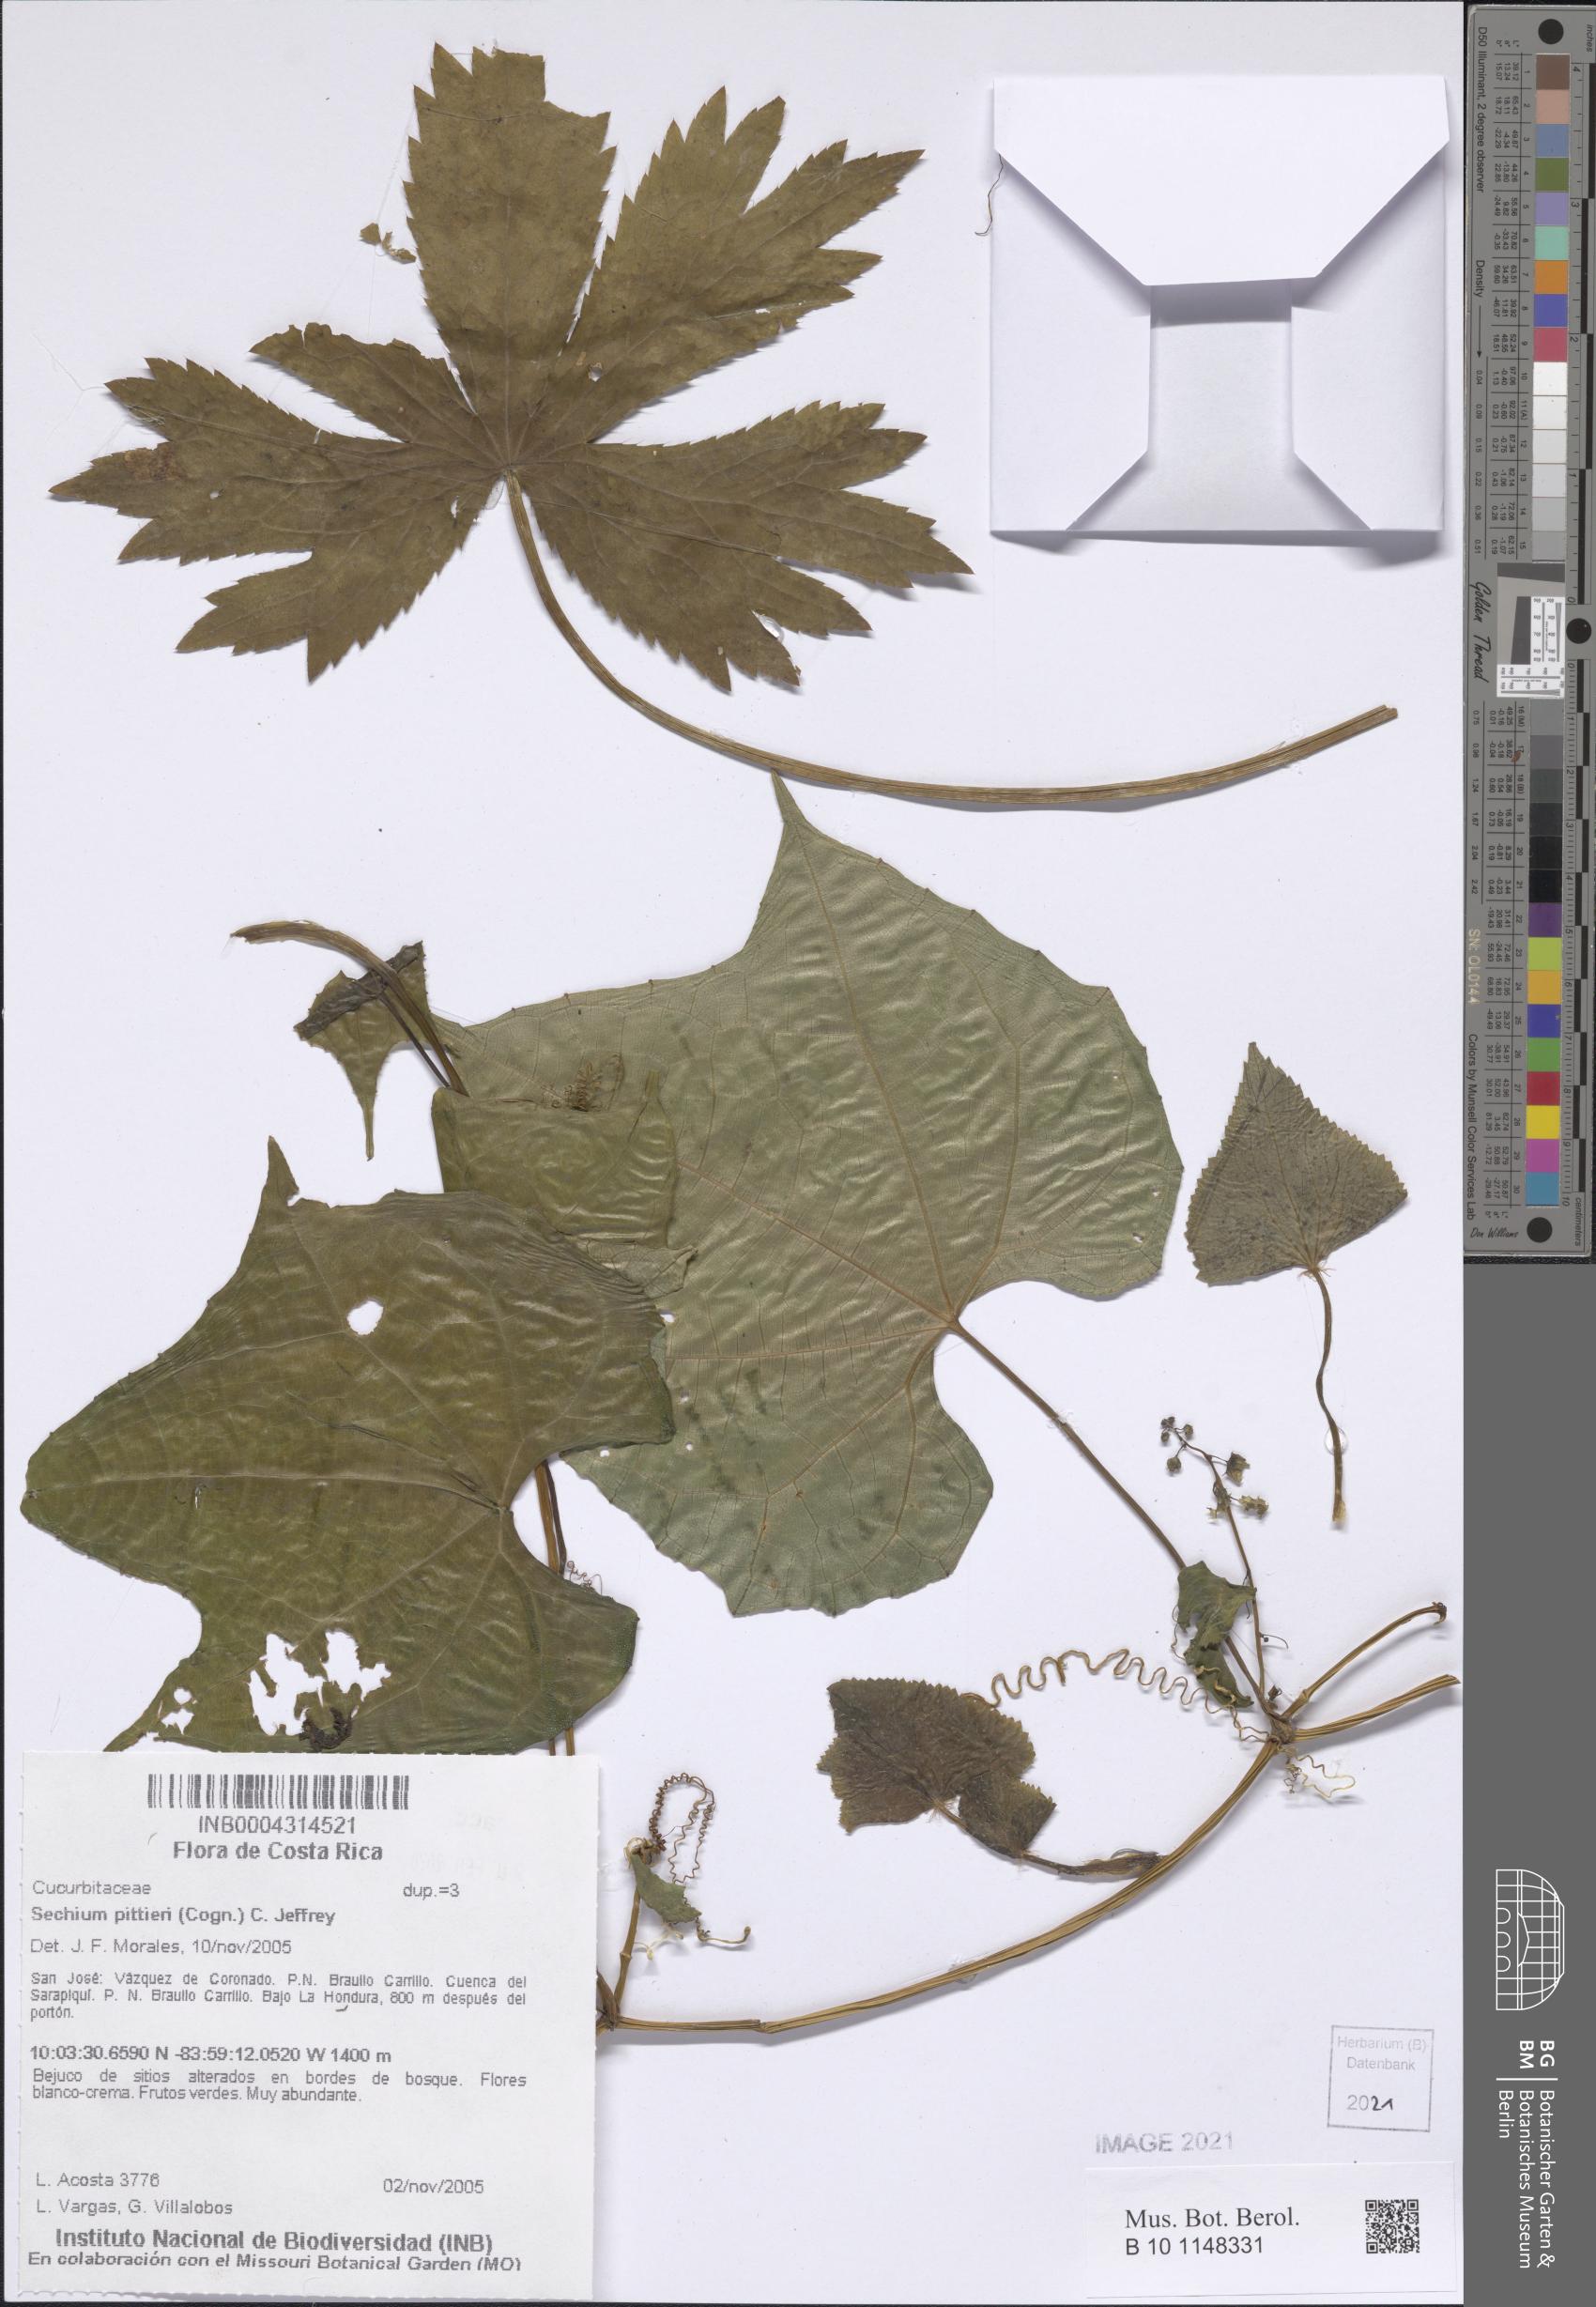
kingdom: Plantae
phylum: Tracheophyta
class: Magnoliopsida
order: Cucurbitales
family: Cucurbitaceae
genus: Frantzia
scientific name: Frantzia pittieri
